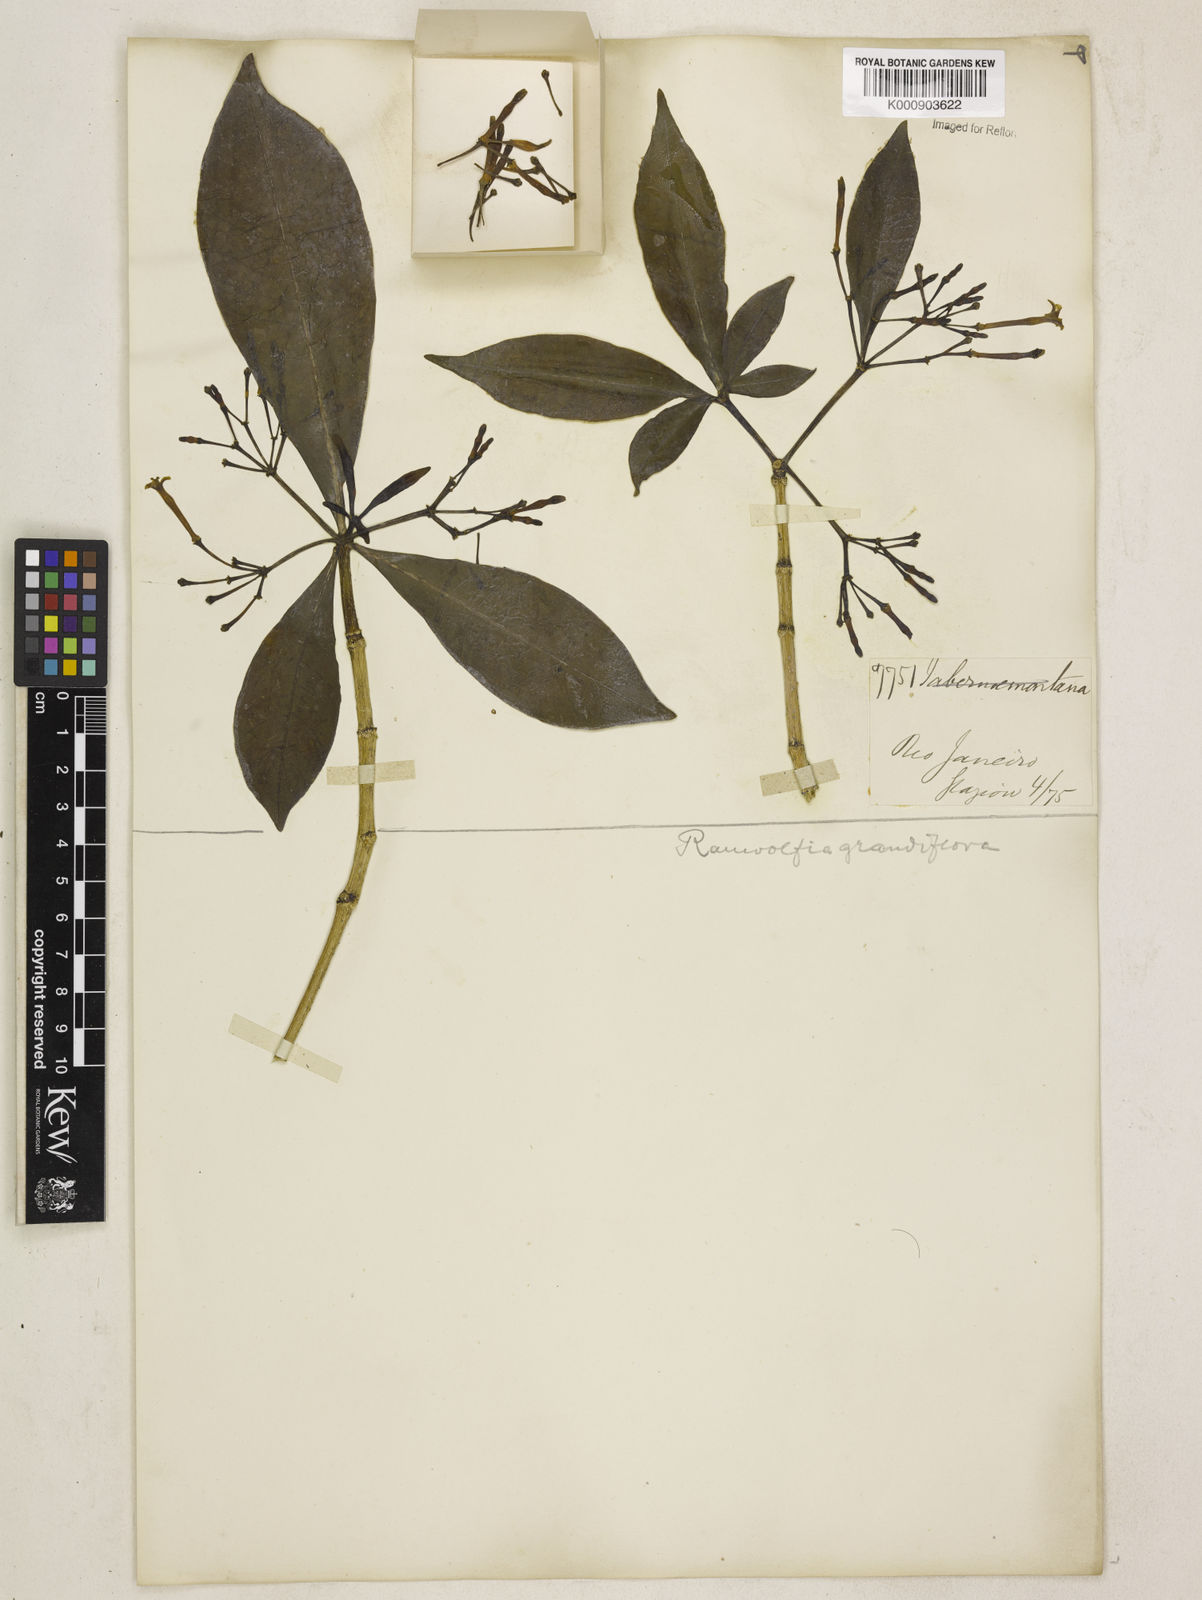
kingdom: Plantae
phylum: Tracheophyta
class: Magnoliopsida
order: Gentianales
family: Apocynaceae
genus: Rauvolfia
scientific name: Rauvolfia
